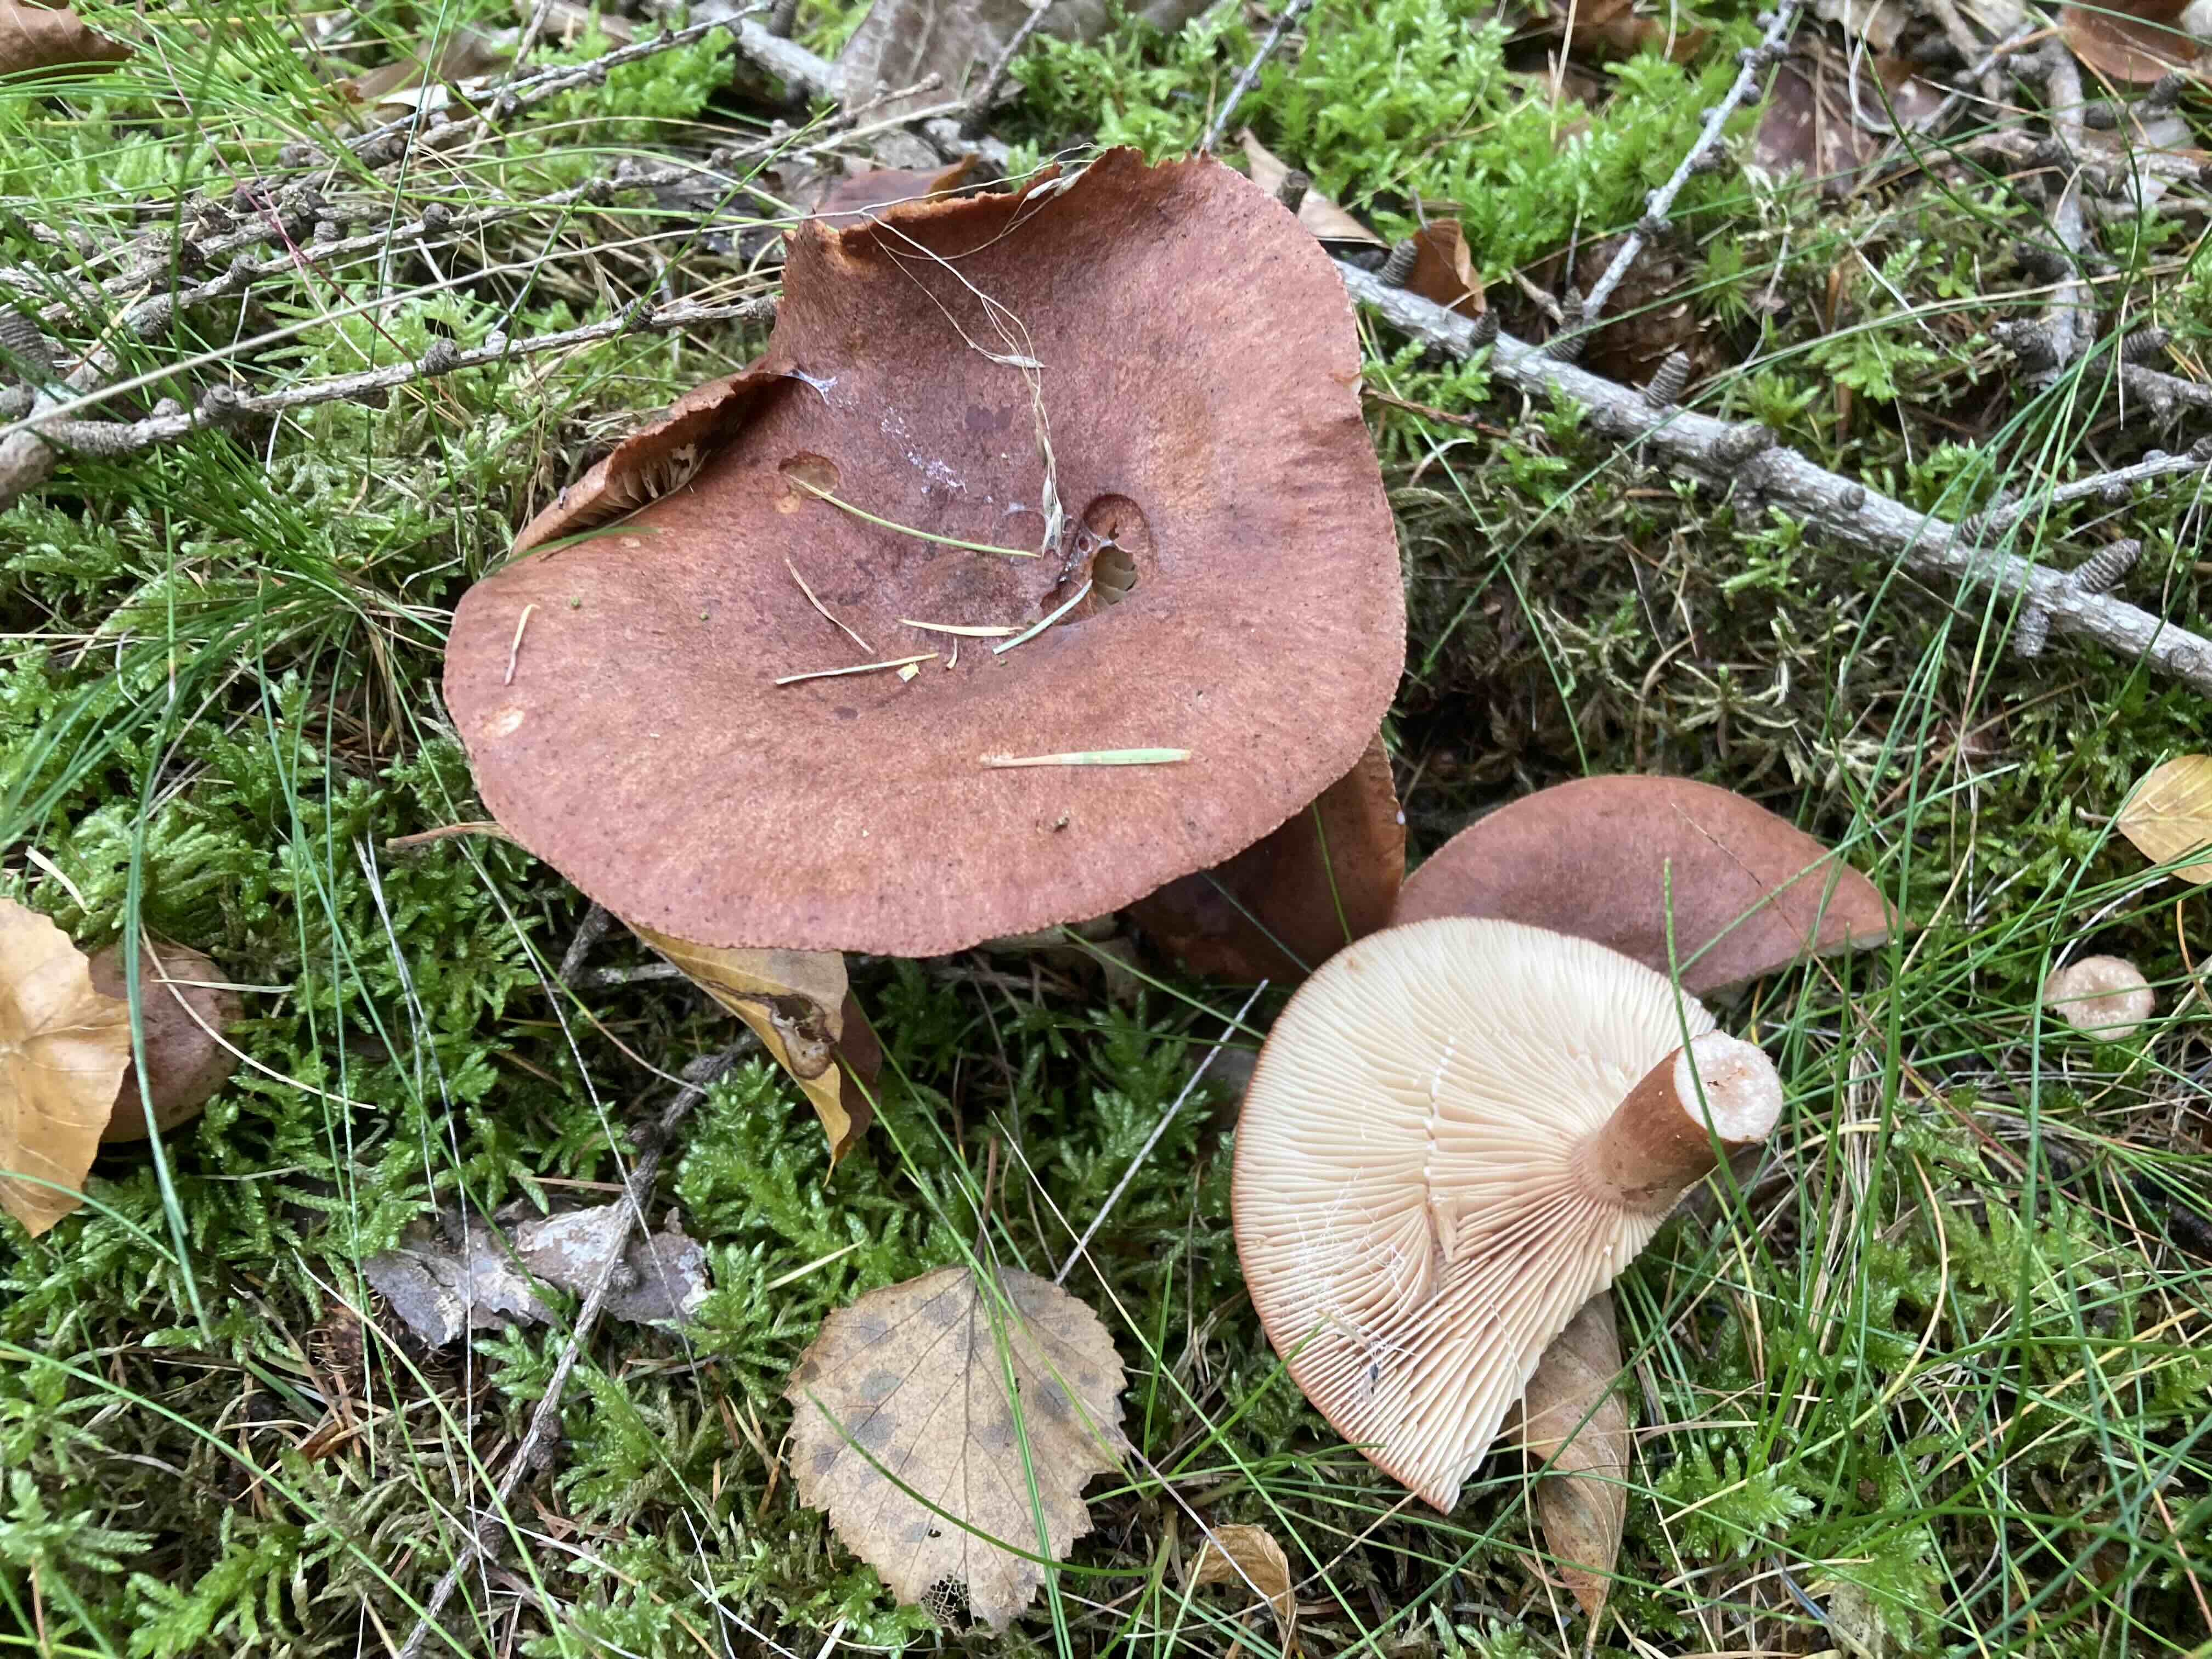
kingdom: Fungi
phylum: Basidiomycota
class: Agaricomycetes
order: Russulales
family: Russulaceae
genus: Lactarius
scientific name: Lactarius rufus
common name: rødbrun mælkehat
